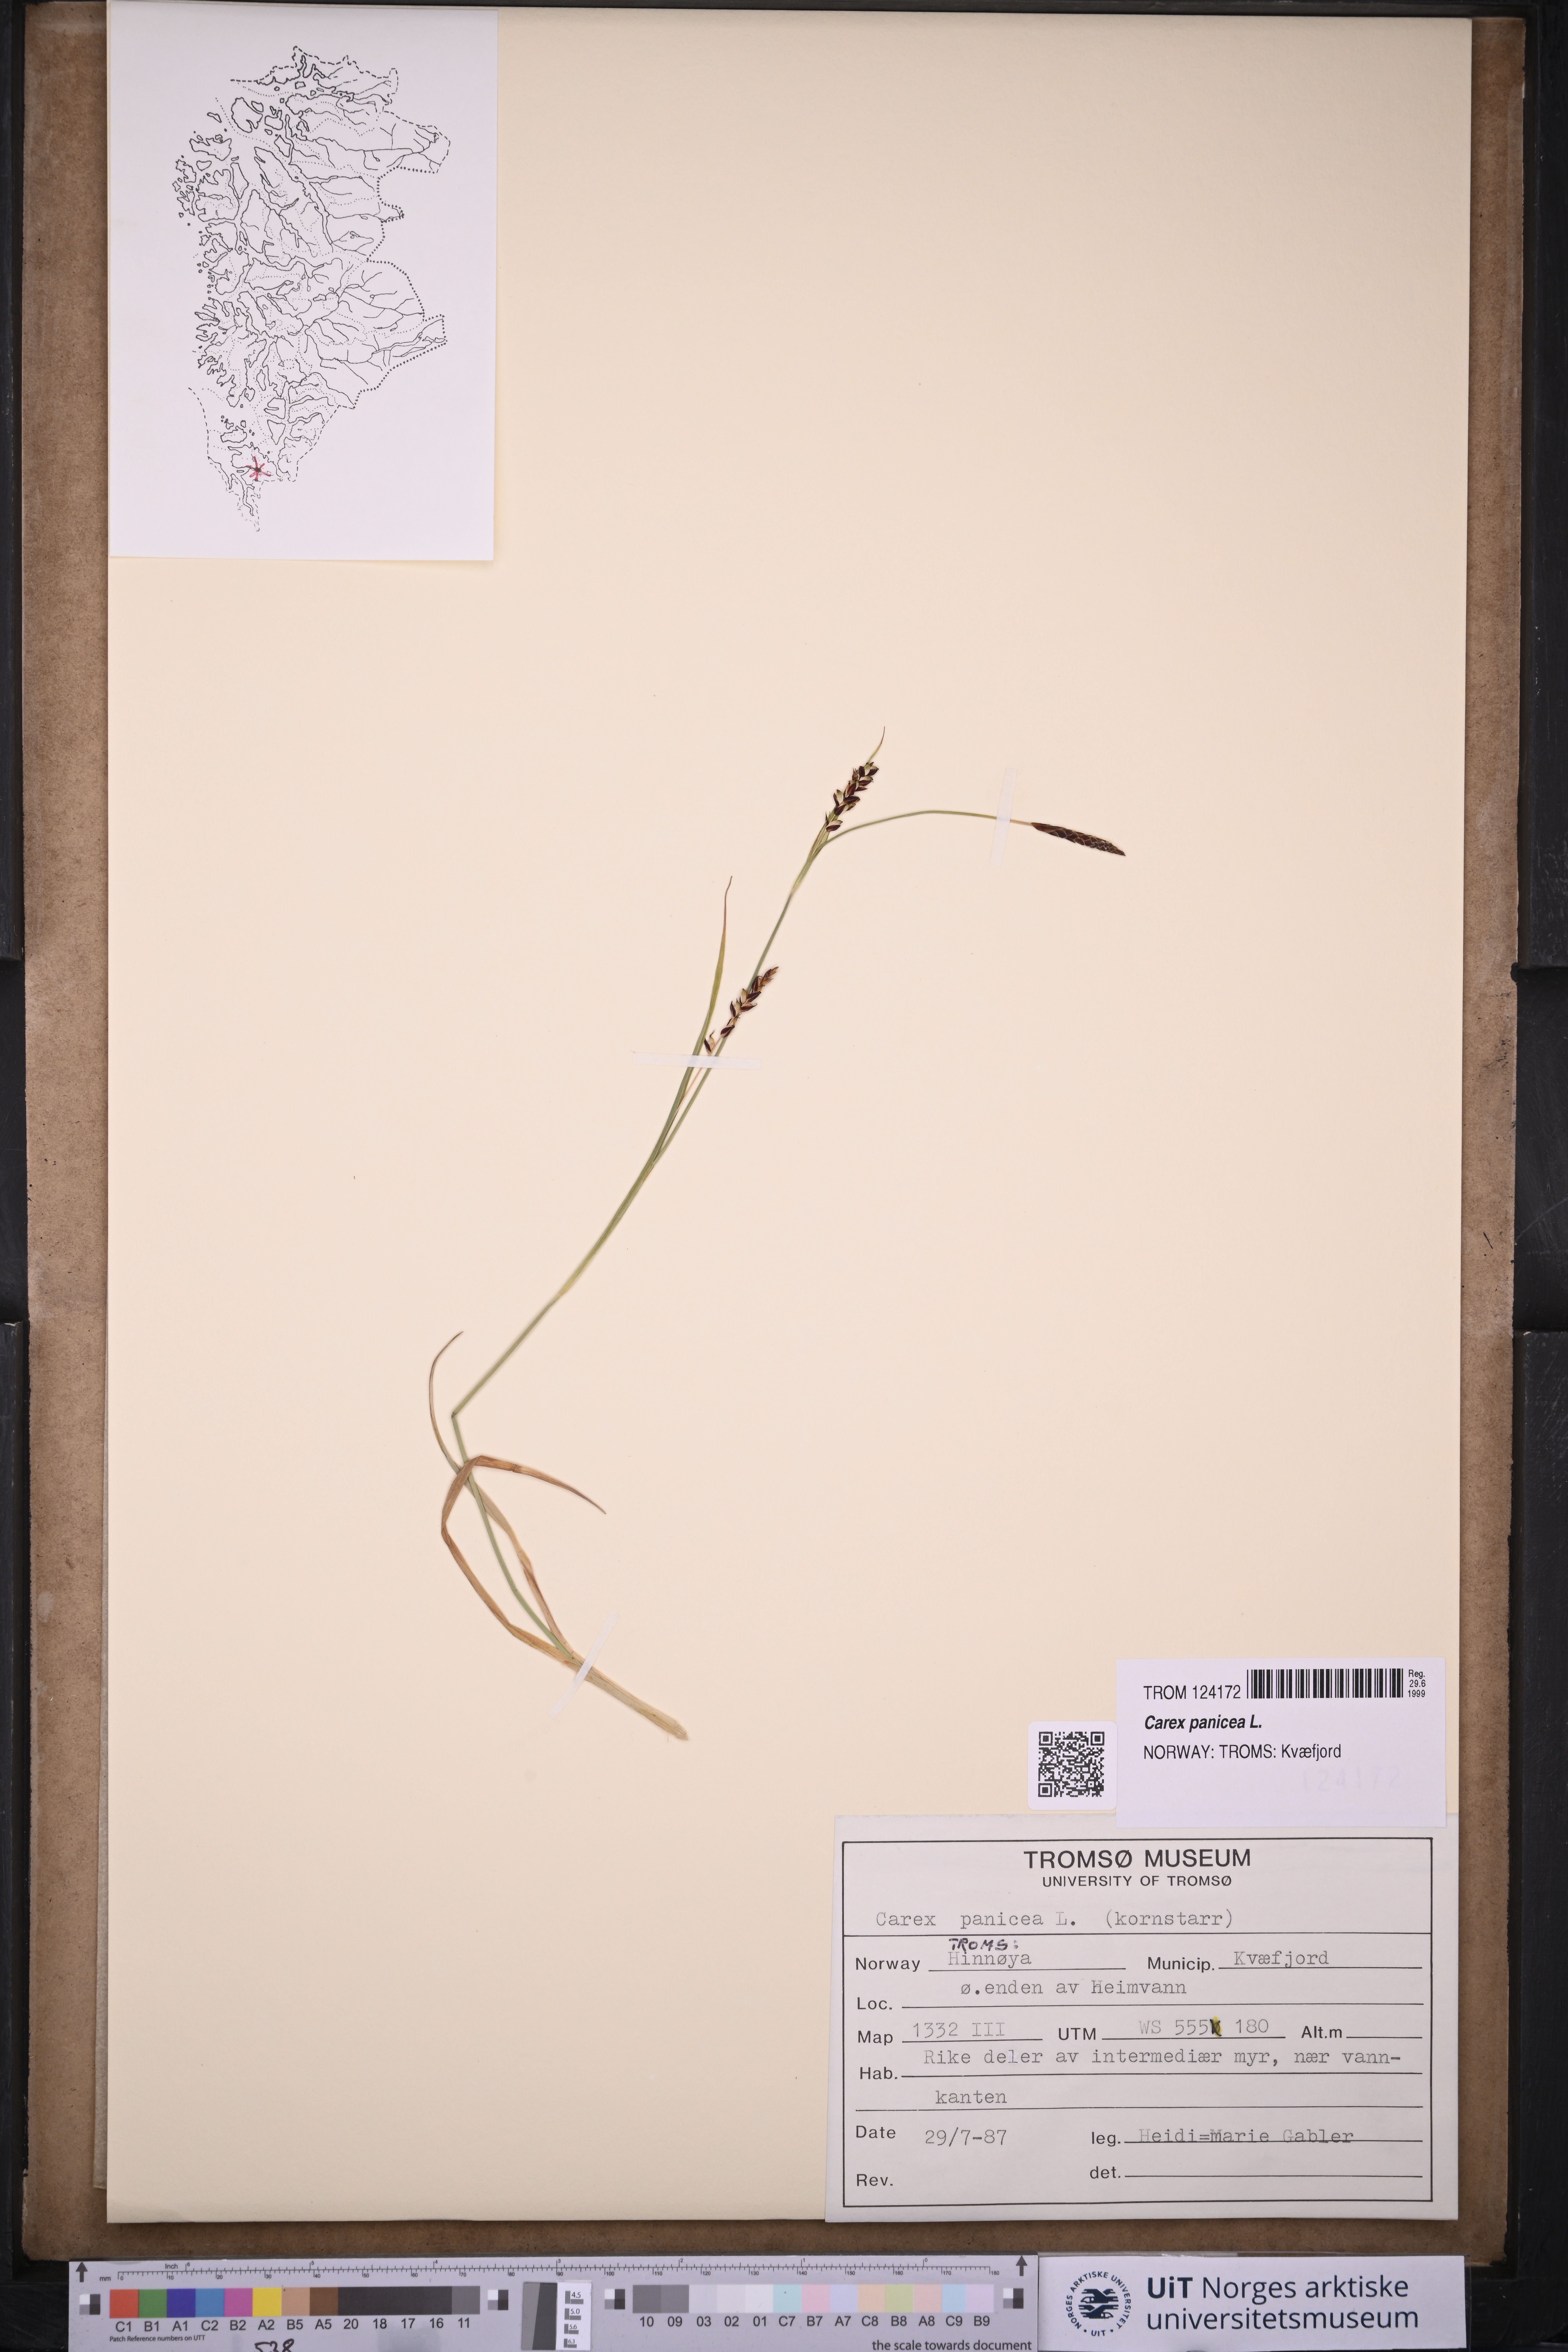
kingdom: Plantae
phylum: Tracheophyta
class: Liliopsida
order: Poales
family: Cyperaceae
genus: Carex
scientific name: Carex panicea
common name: Carnation sedge
